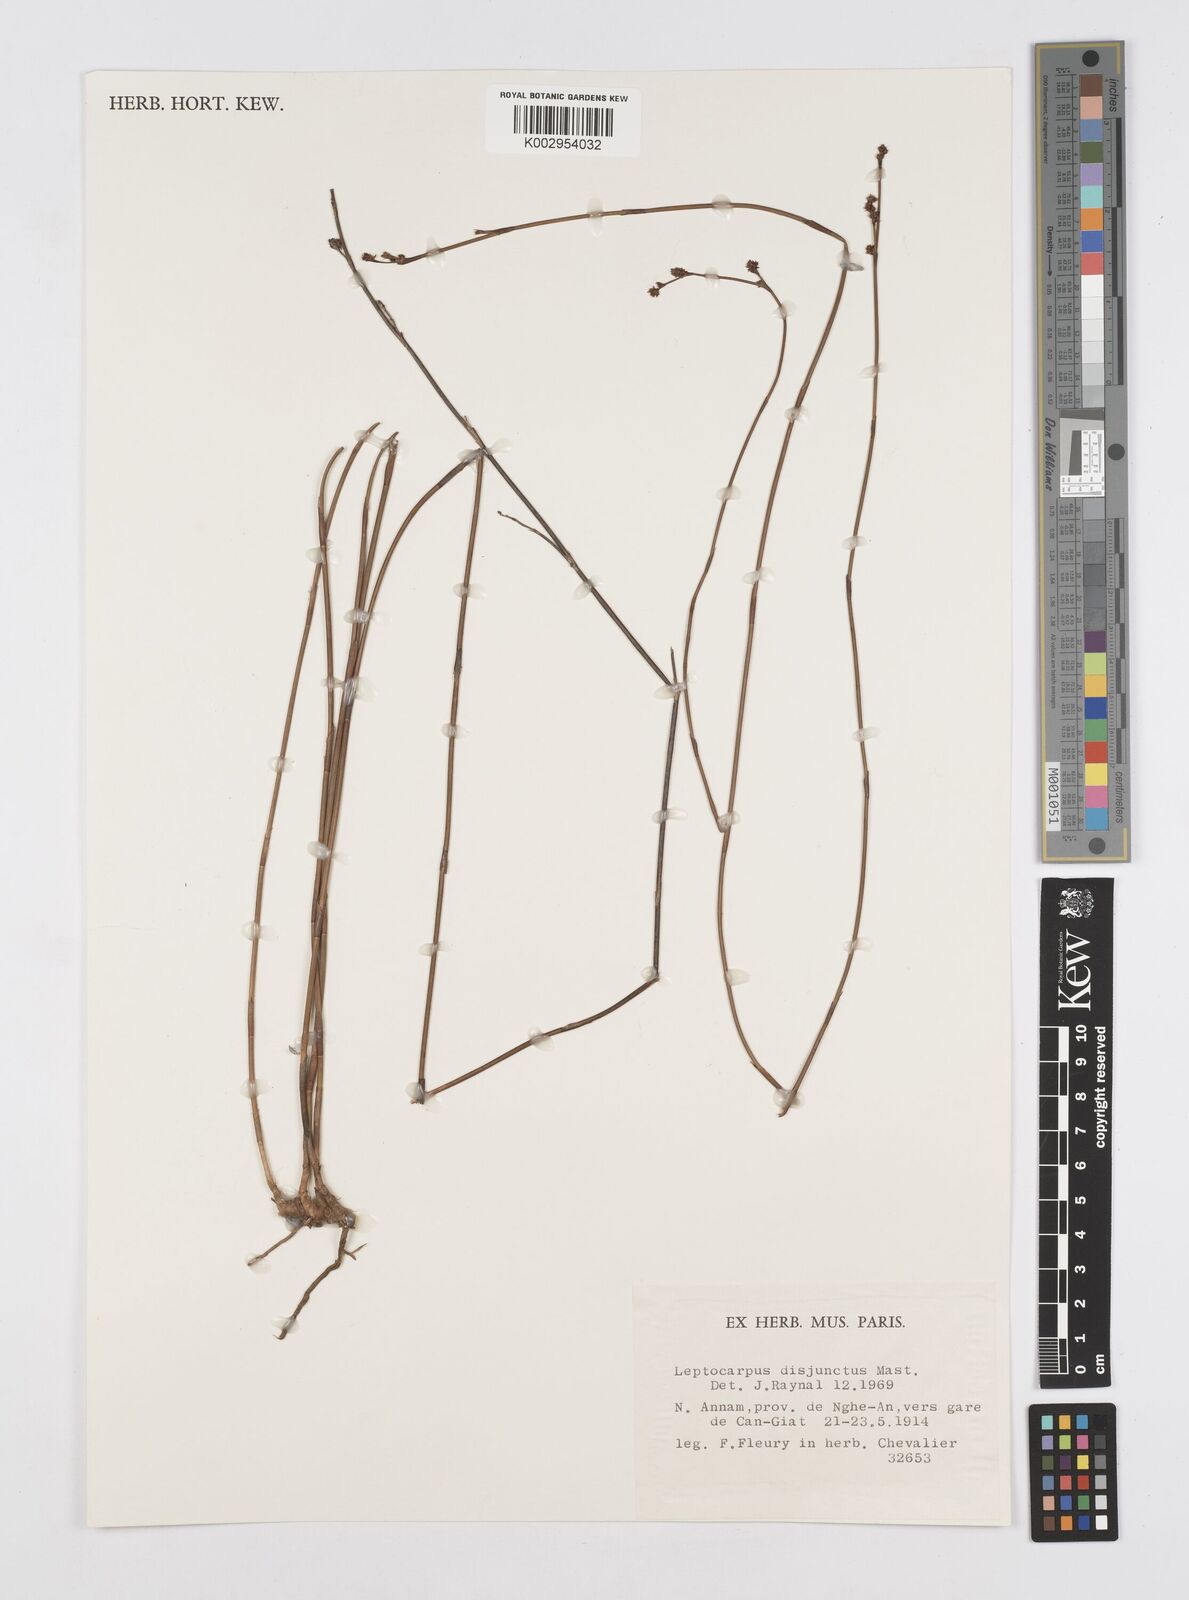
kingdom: Plantae
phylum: Tracheophyta
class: Liliopsida
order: Poales
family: Restionaceae
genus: Dapsilanthus
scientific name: Dapsilanthus disjunctus
